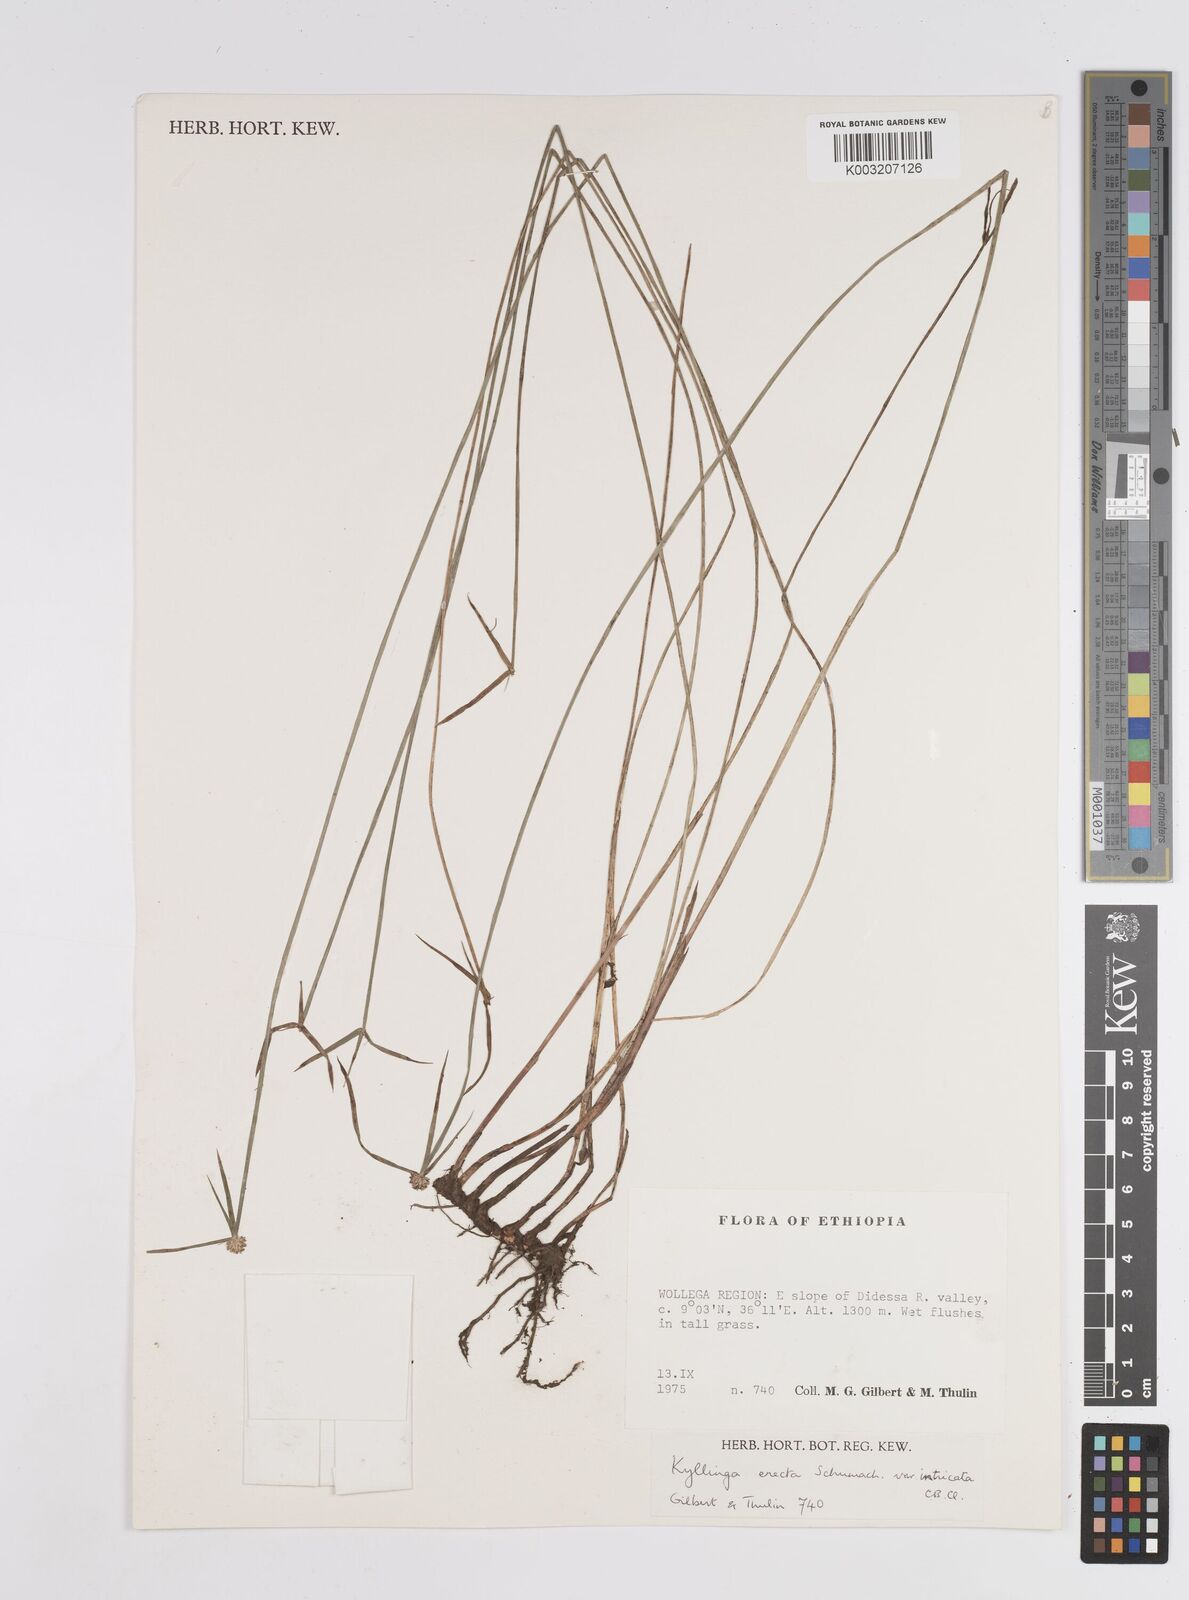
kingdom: Plantae
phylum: Tracheophyta
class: Liliopsida
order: Poales
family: Cyperaceae
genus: Cyperus
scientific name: Cyperus
